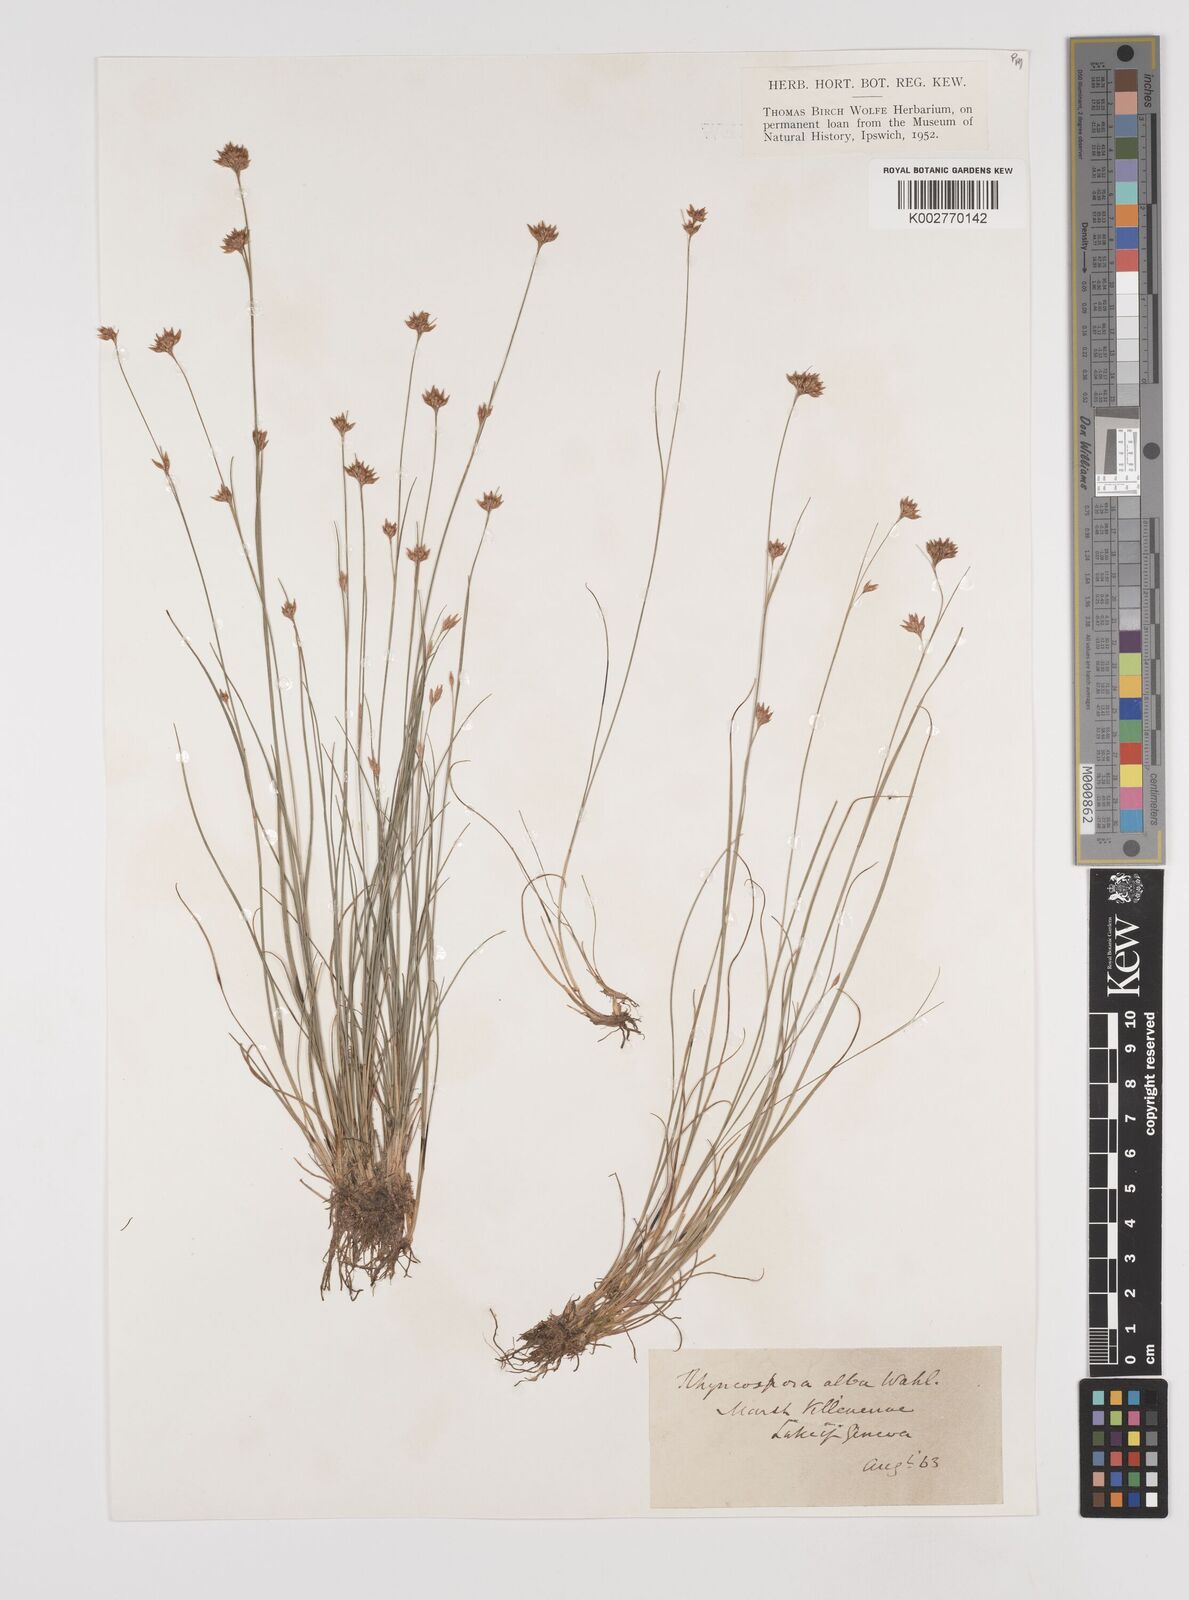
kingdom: Plantae
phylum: Tracheophyta
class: Liliopsida
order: Poales
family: Cyperaceae
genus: Rhynchospora
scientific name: Rhynchospora alba
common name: White beak-sedge
